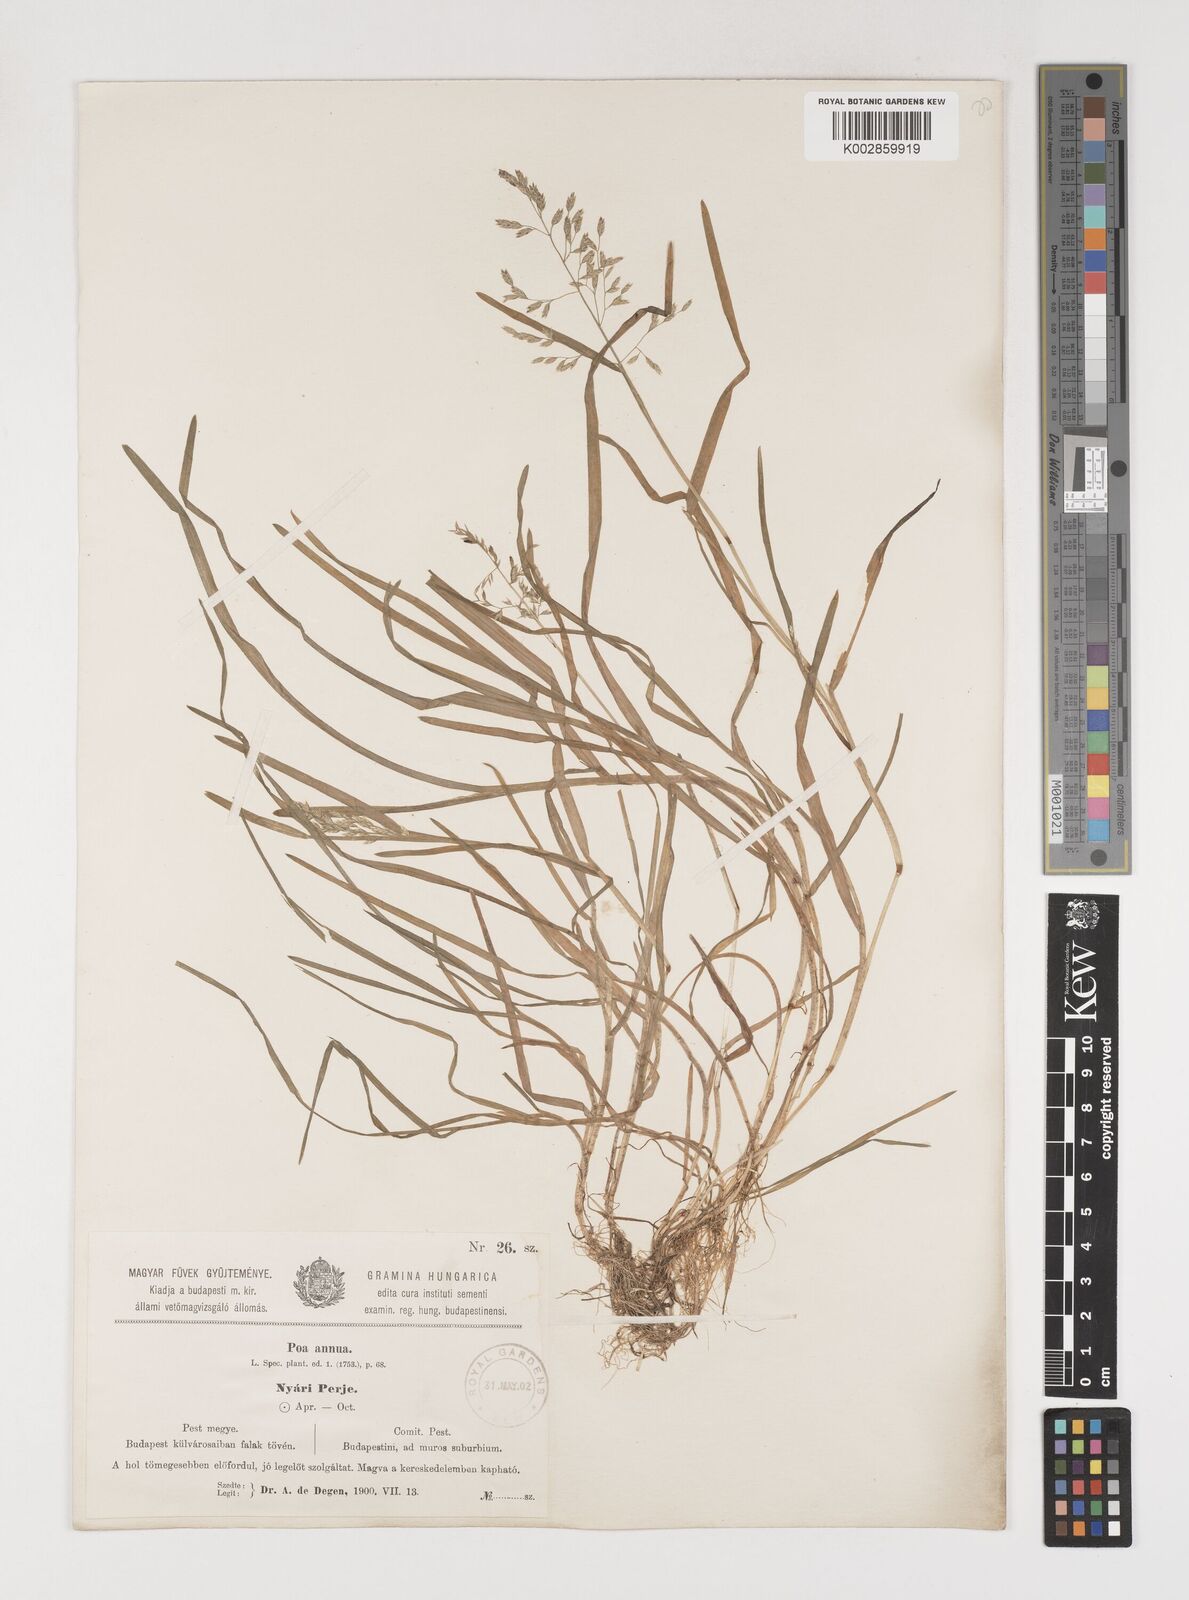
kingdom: Plantae
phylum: Tracheophyta
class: Liliopsida
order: Poales
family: Poaceae
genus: Poa
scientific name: Poa annua
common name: Annual bluegrass
